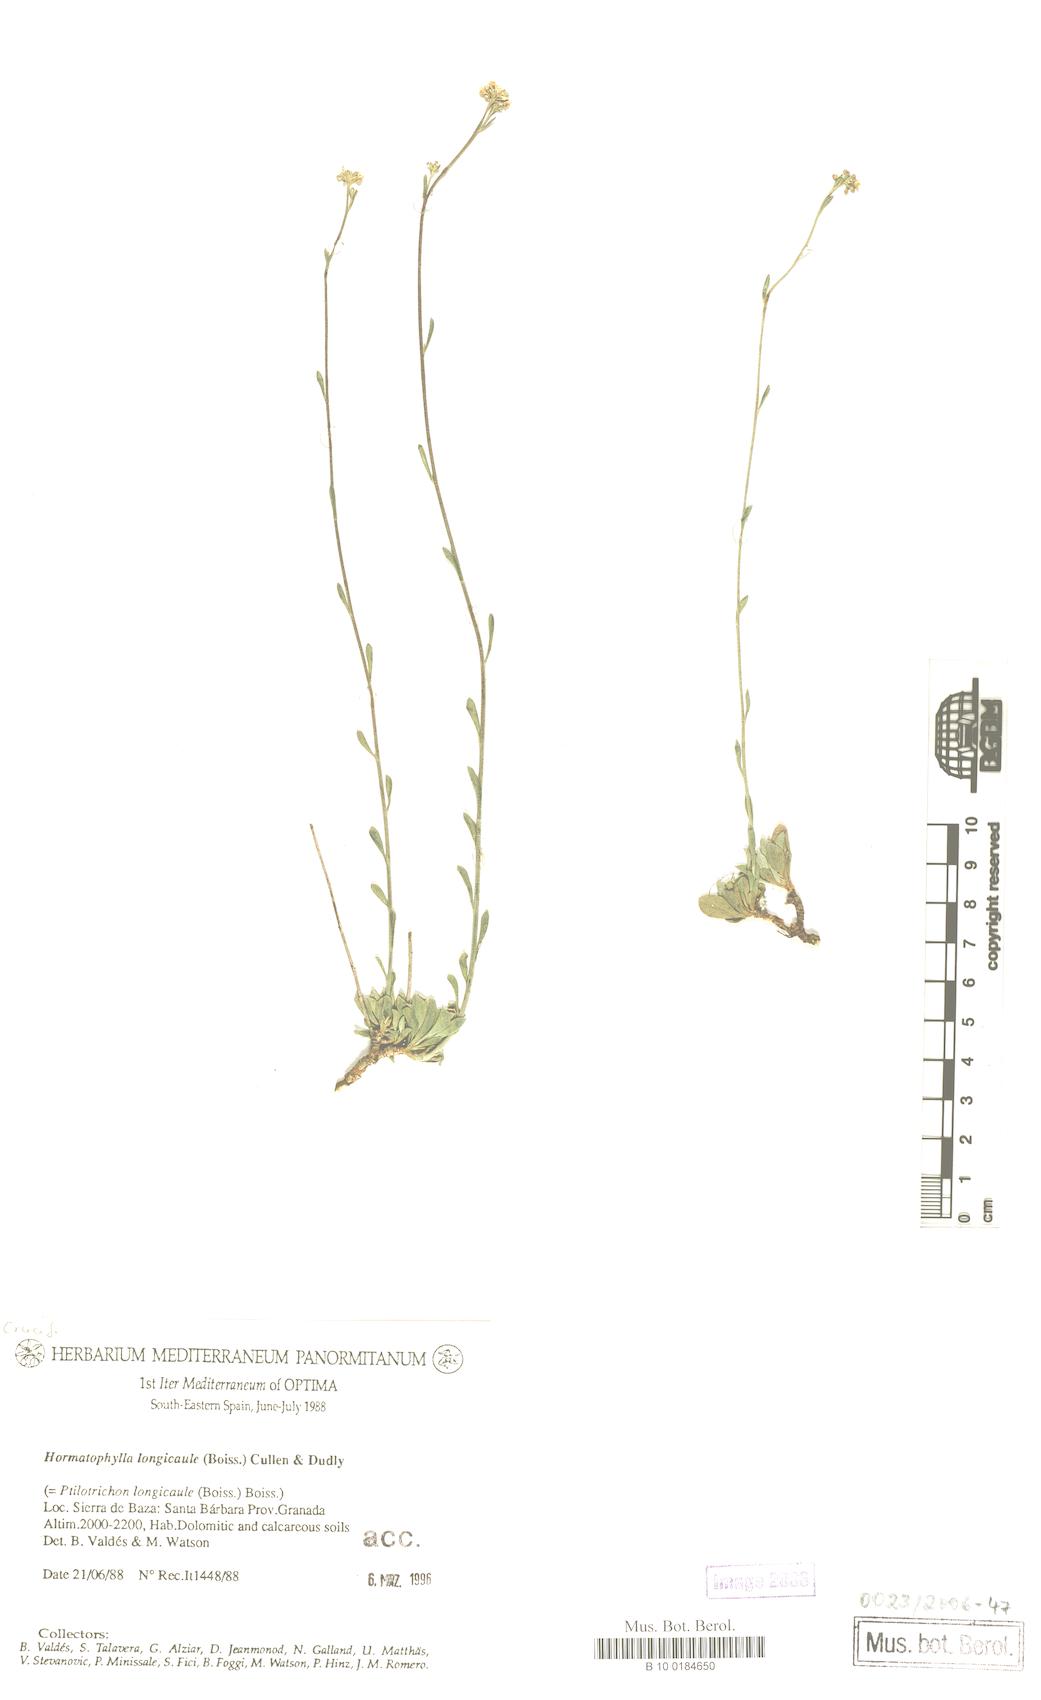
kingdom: Plantae
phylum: Tracheophyta
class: Magnoliopsida
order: Brassicales
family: Brassicaceae
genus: Hormathophylla
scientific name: Hormathophylla longicaulis
